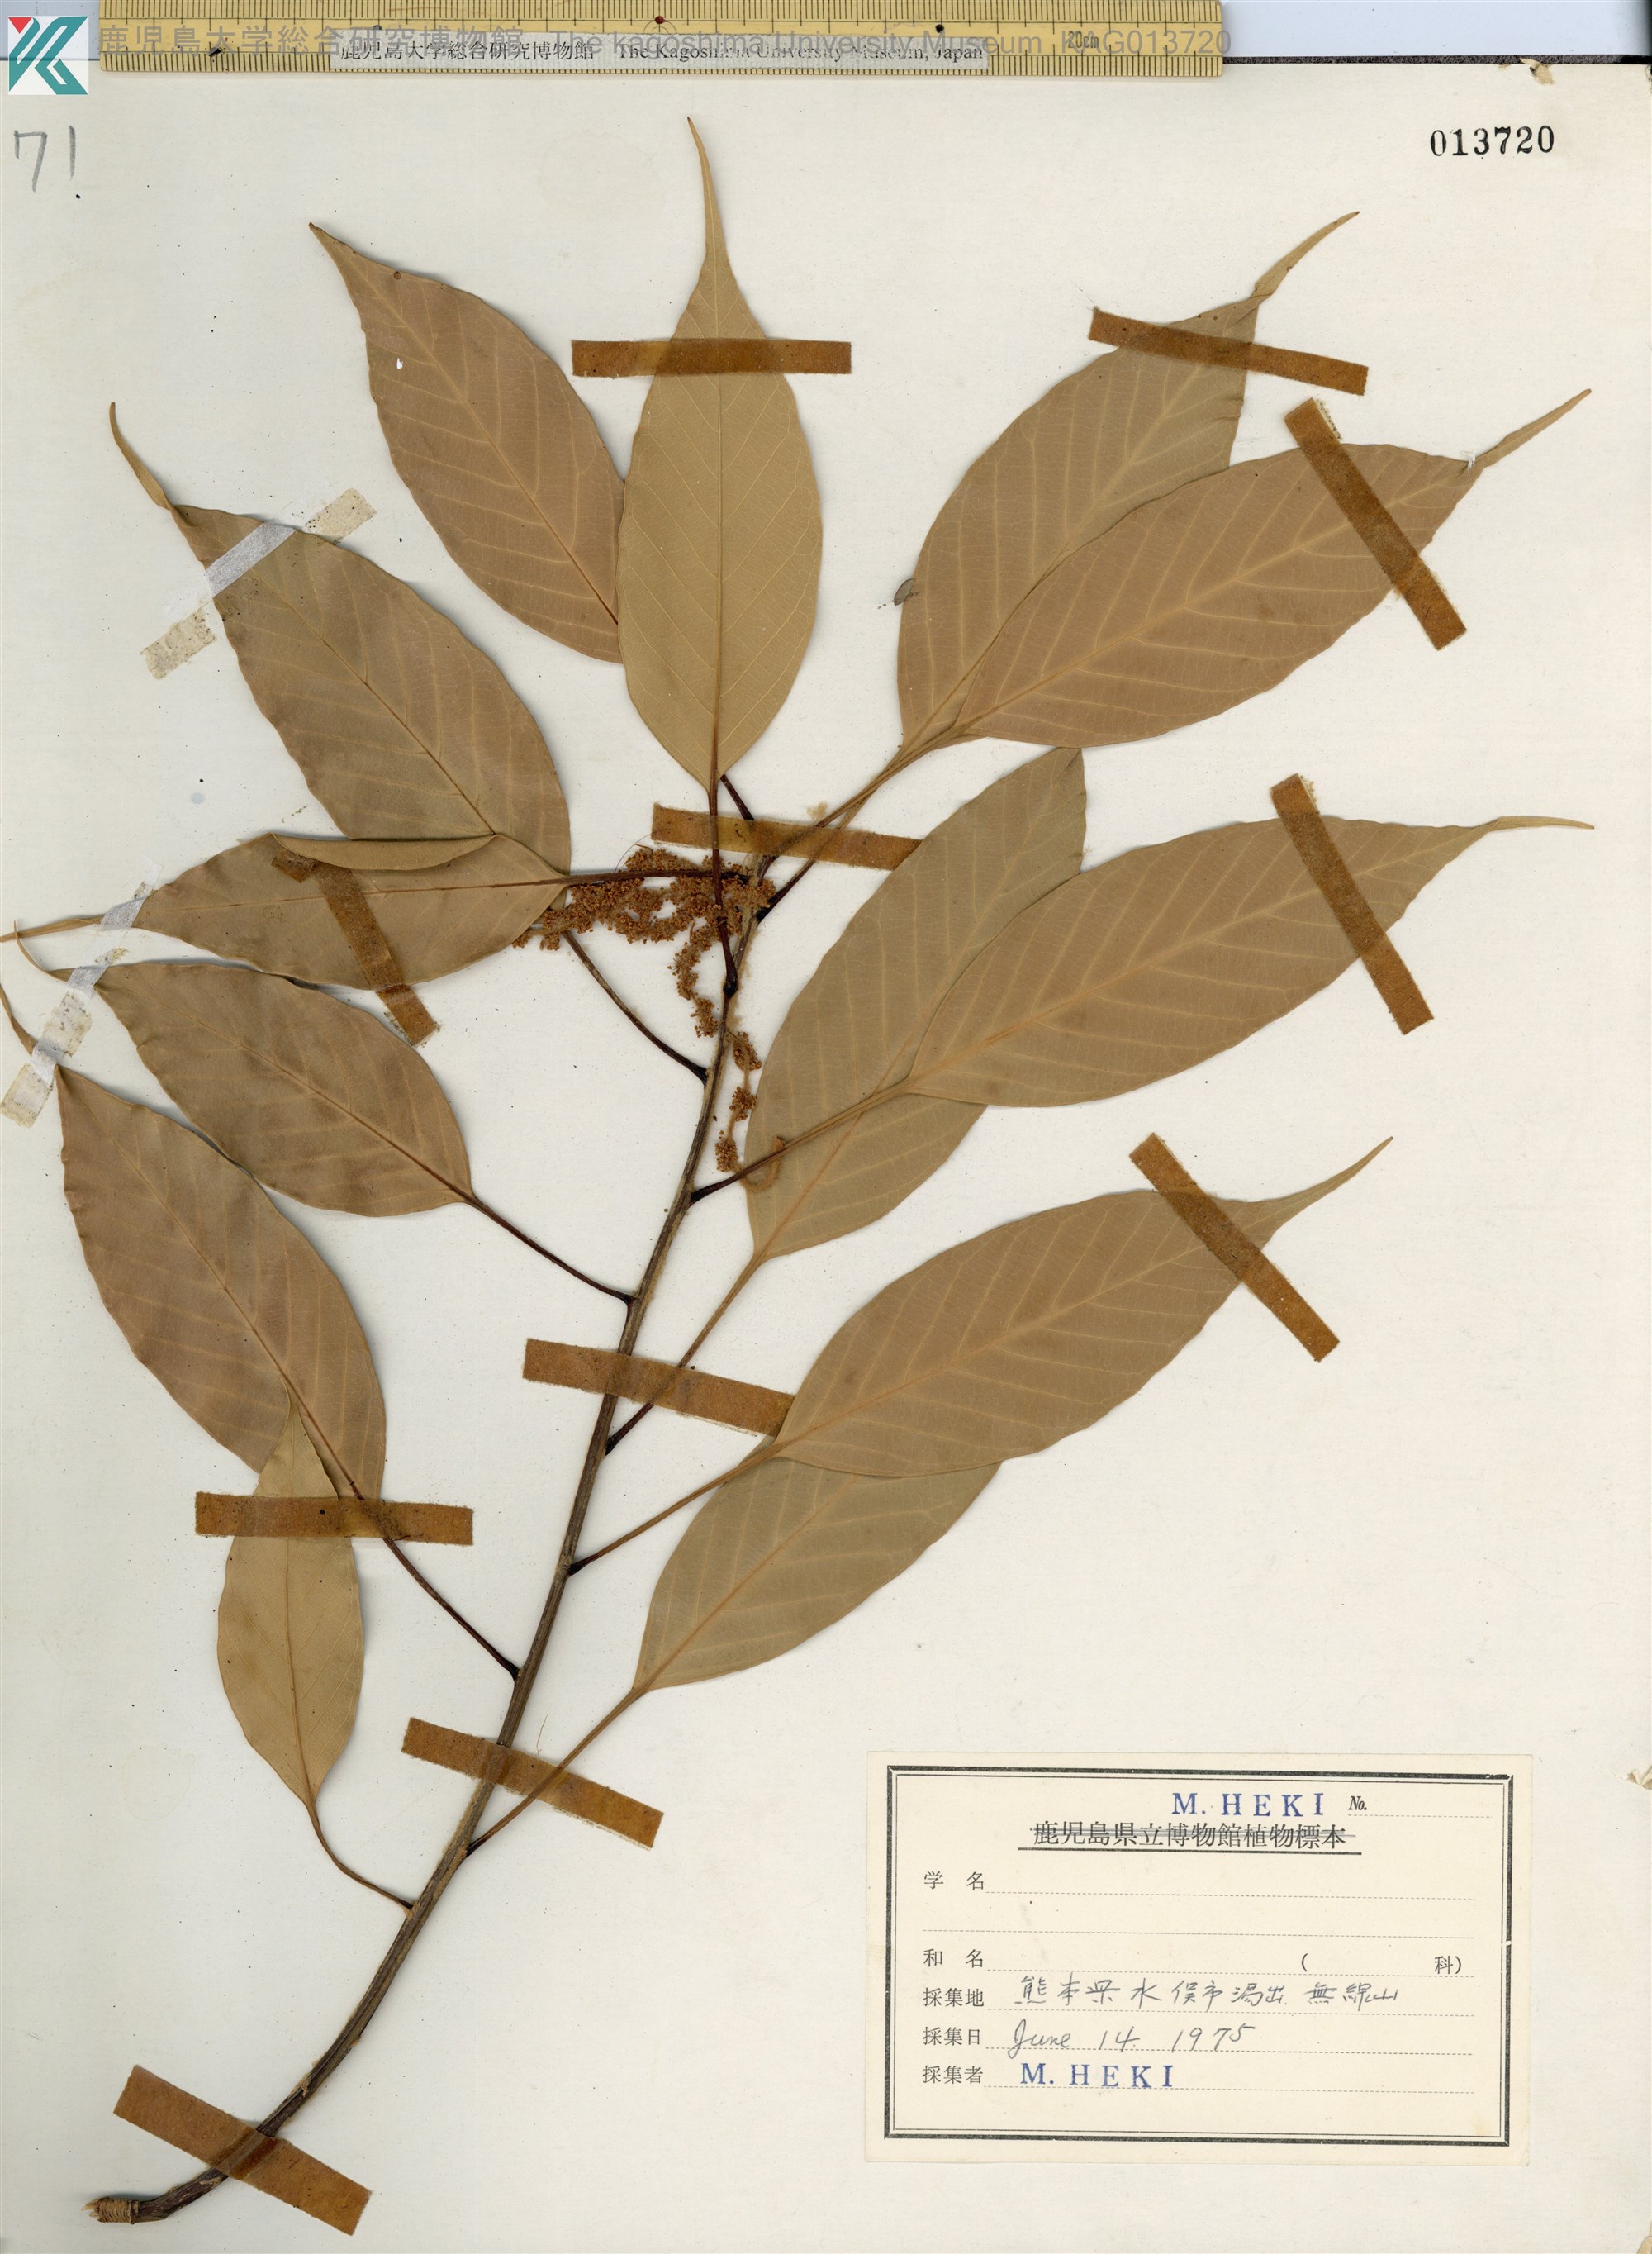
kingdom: Plantae
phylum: Tracheophyta
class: Magnoliopsida
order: Fagales
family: Fagaceae
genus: Quercus
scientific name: Quercus acuta
